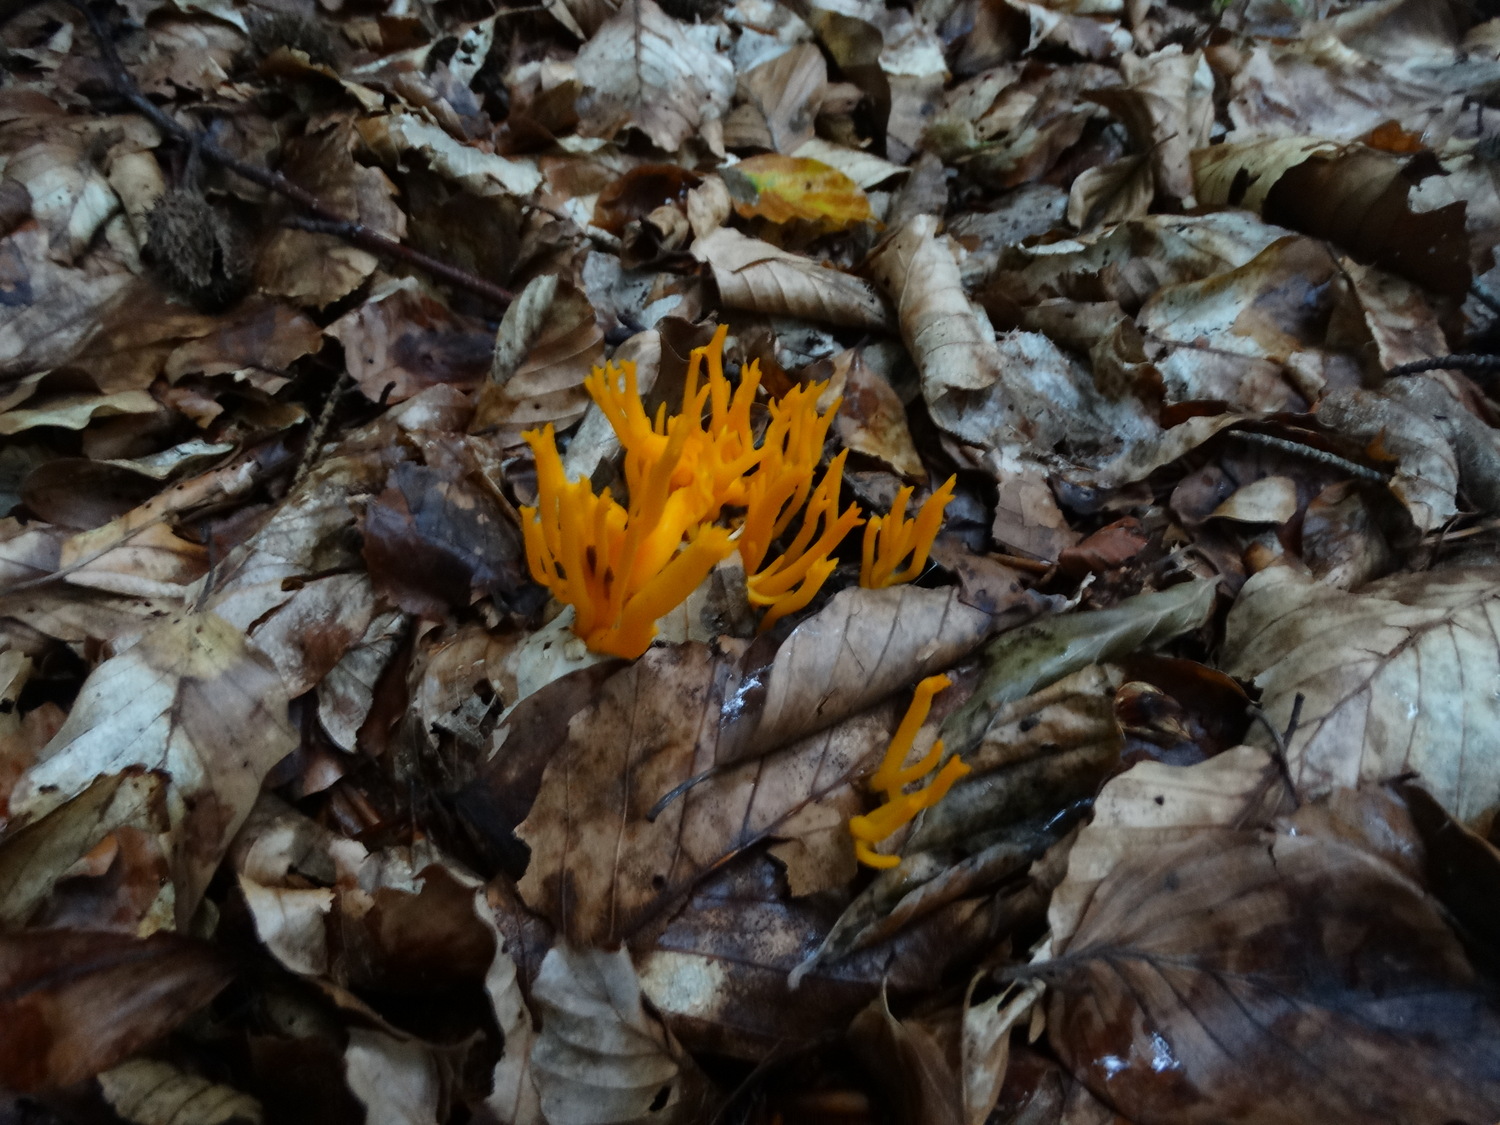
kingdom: Fungi
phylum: Basidiomycota
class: Dacrymycetes
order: Dacrymycetales
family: Dacrymycetaceae
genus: Calocera
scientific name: Calocera viscosa
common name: almindelig guldgaffel
